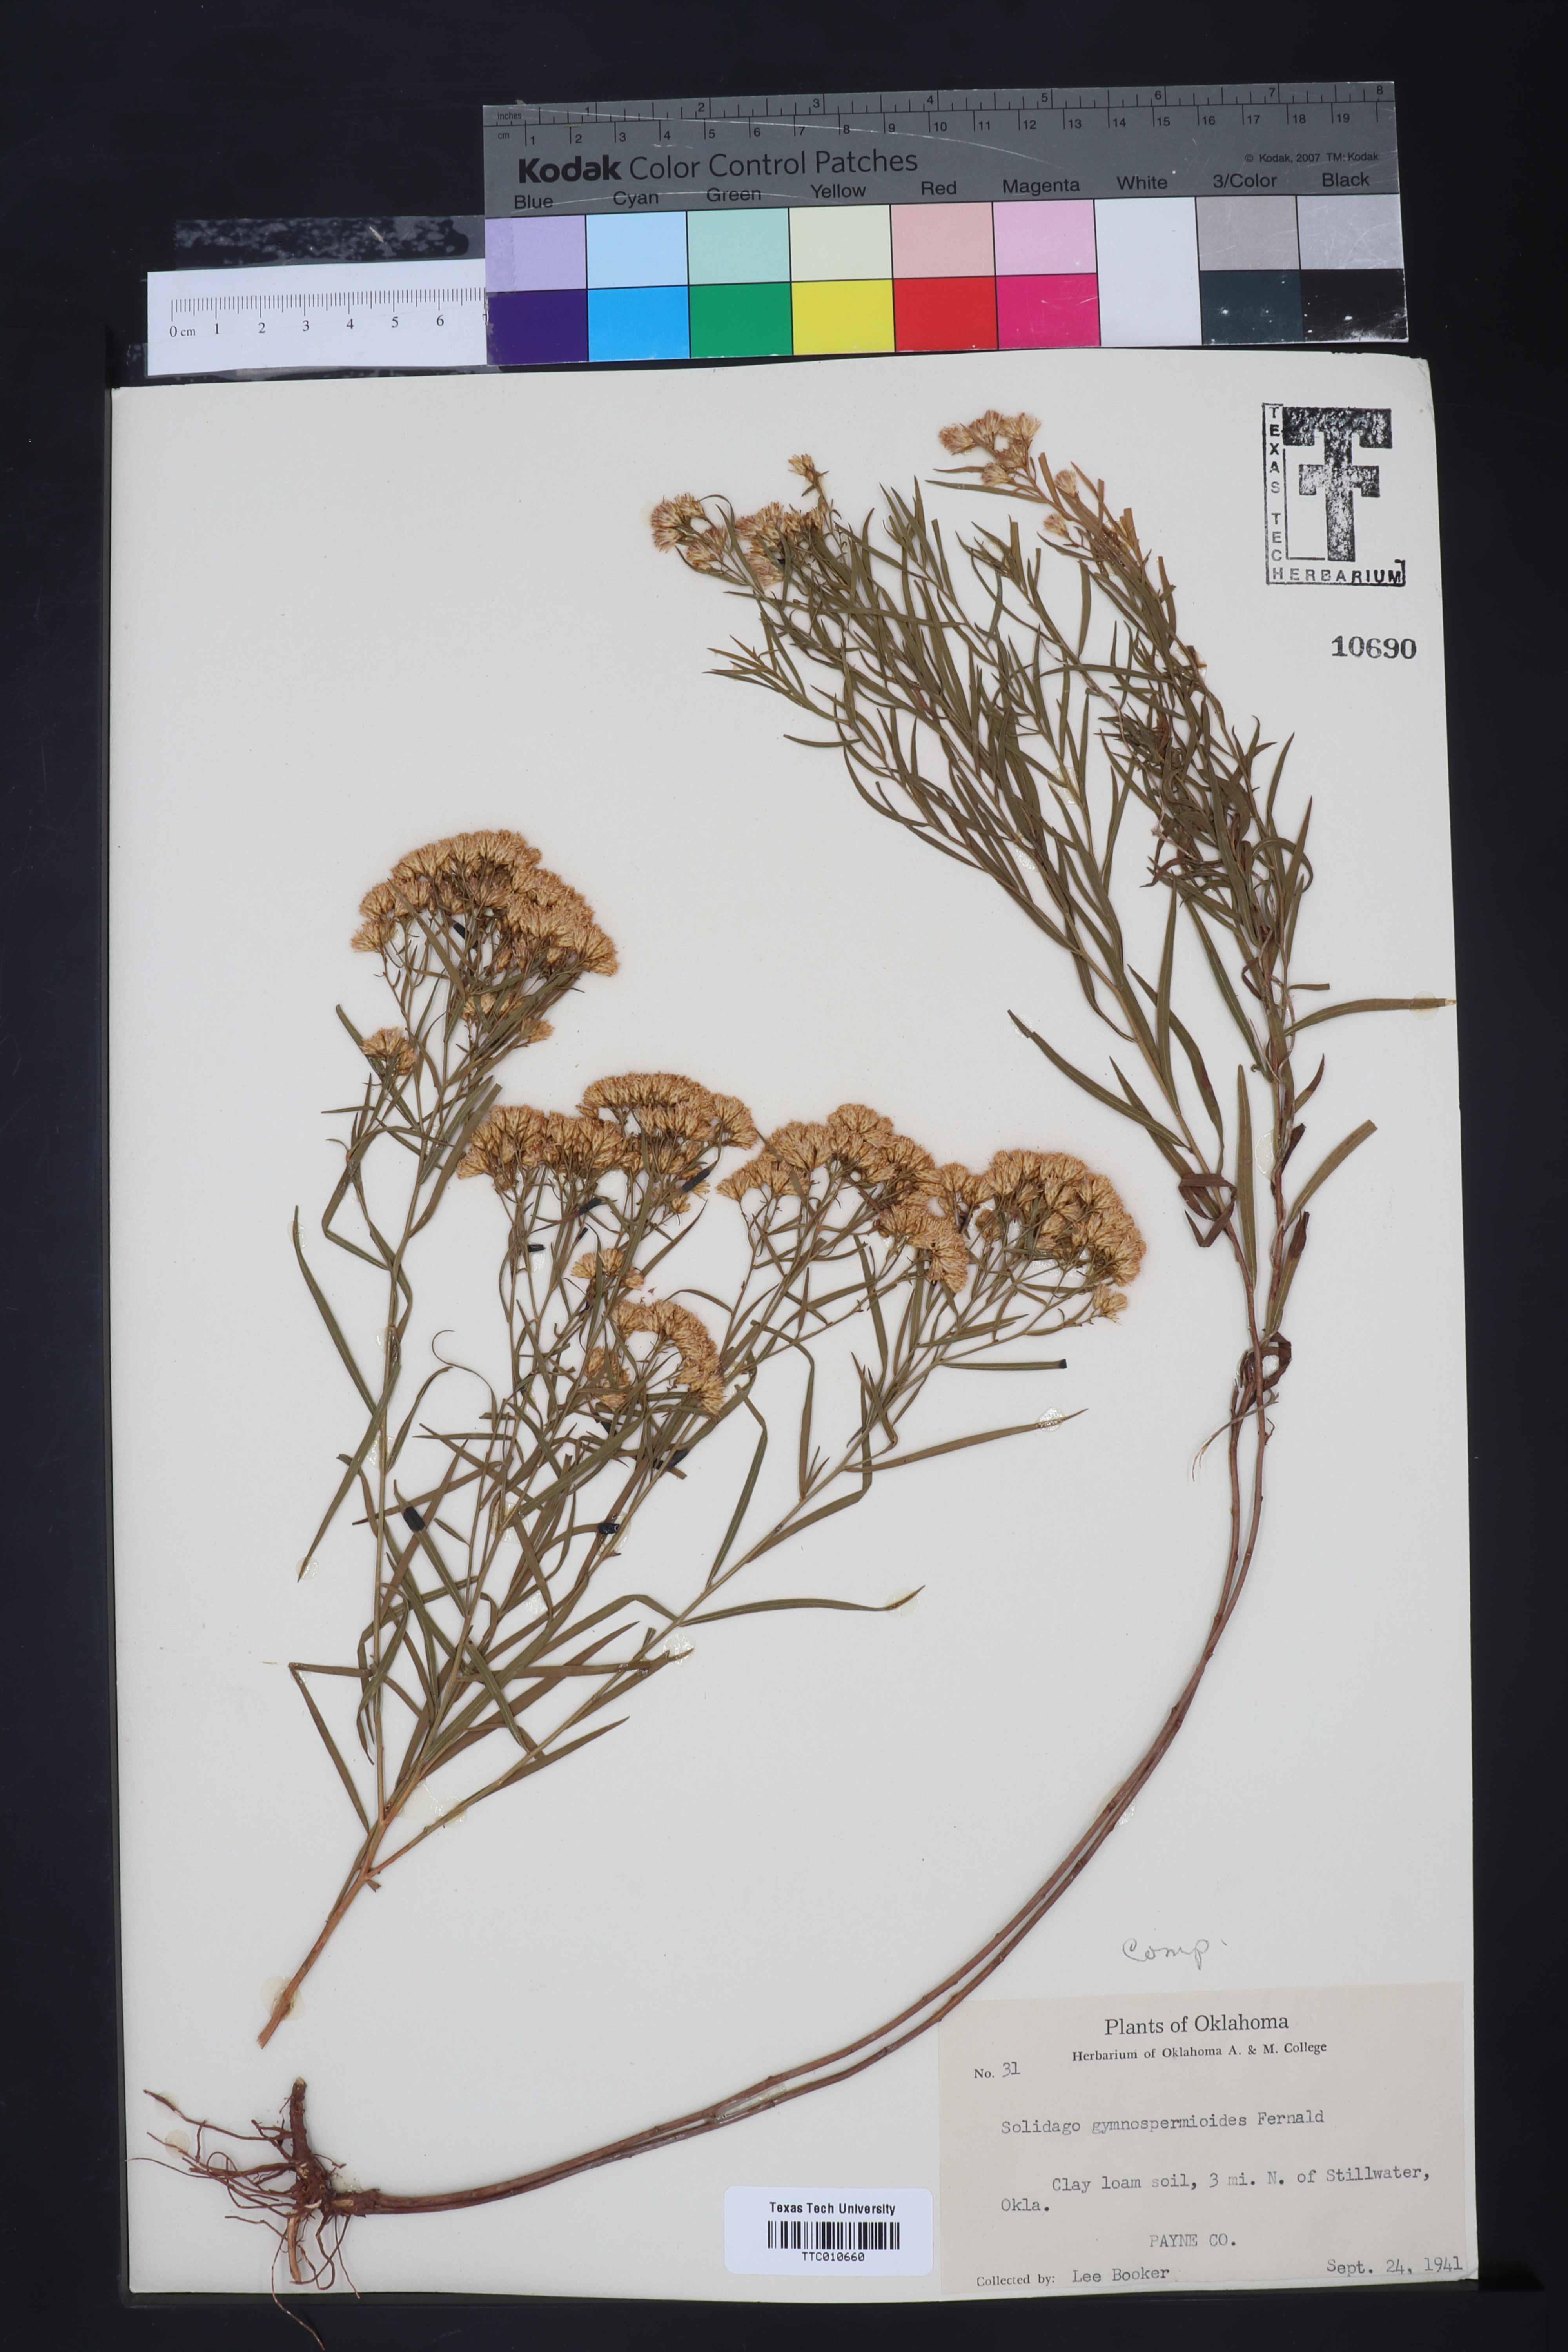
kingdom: Plantae
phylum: Tracheophyta
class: Magnoliopsida
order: Asterales
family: Asteraceae
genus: Euthamia
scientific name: Euthamia gymnospermoides
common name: Great plains goldentop
